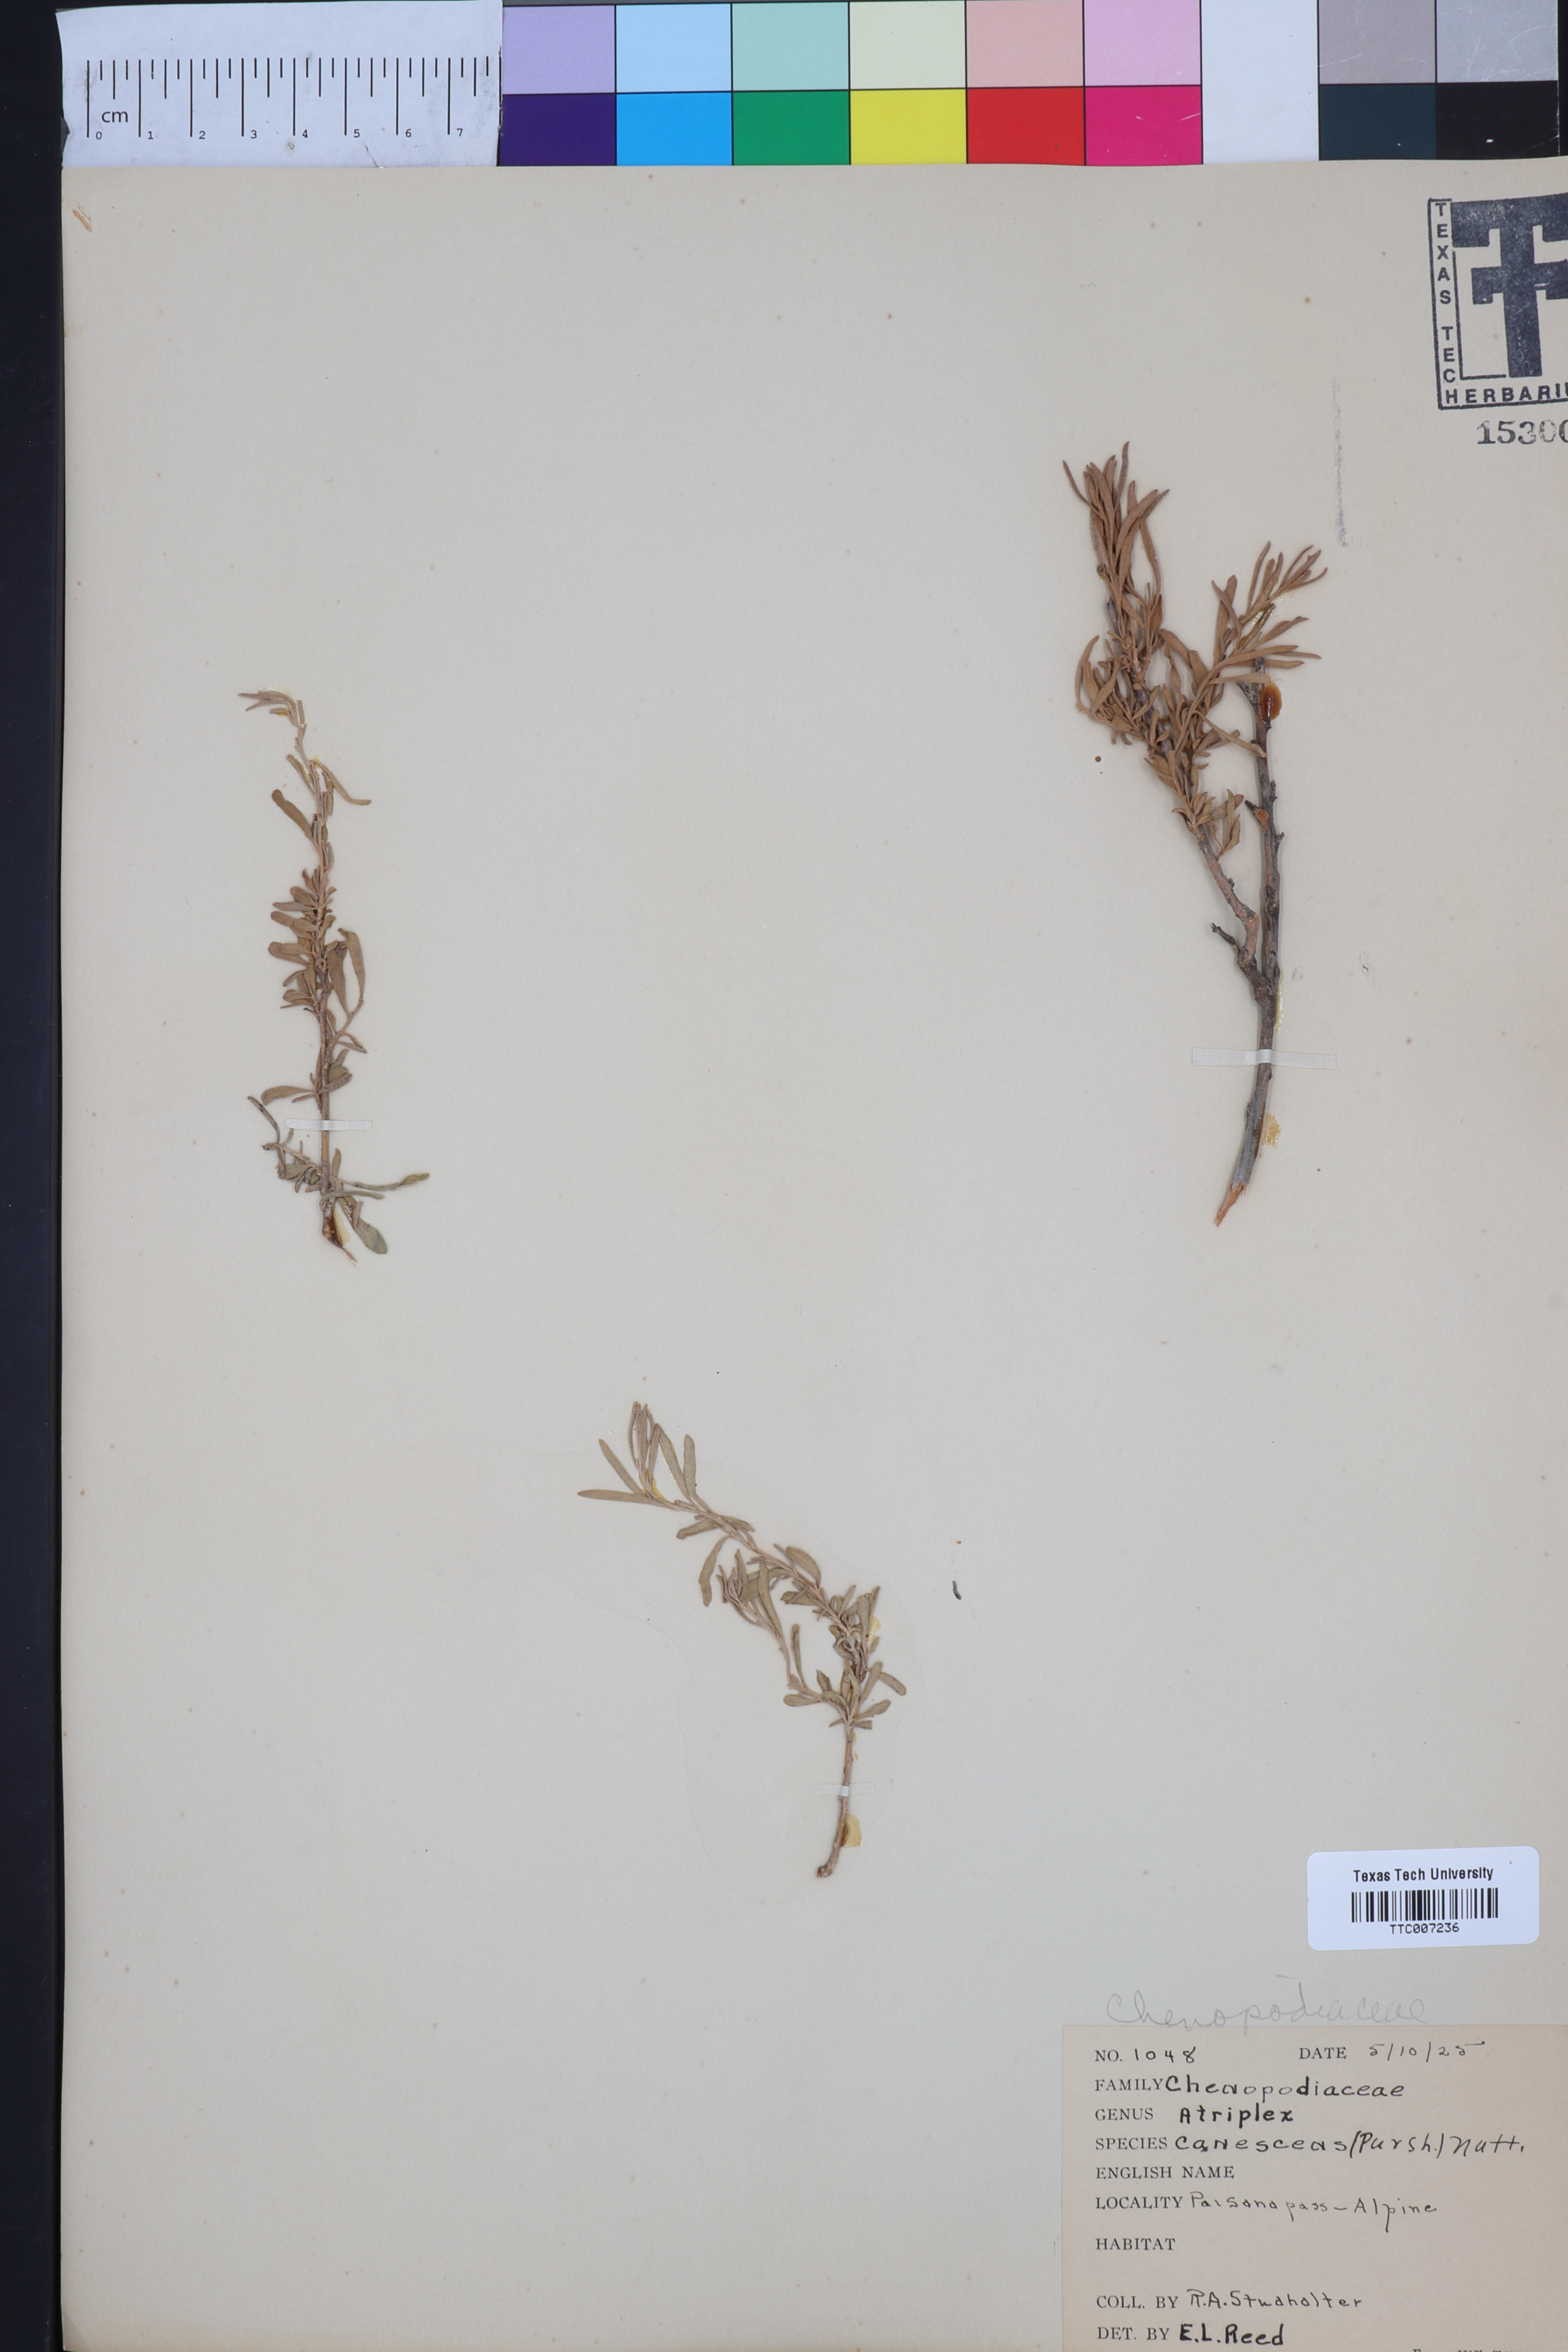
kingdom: Plantae
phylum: Tracheophyta
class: Magnoliopsida
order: Caryophyllales
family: Amaranthaceae
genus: Atriplex
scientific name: Atriplex canescens
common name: Four-wing saltbush
